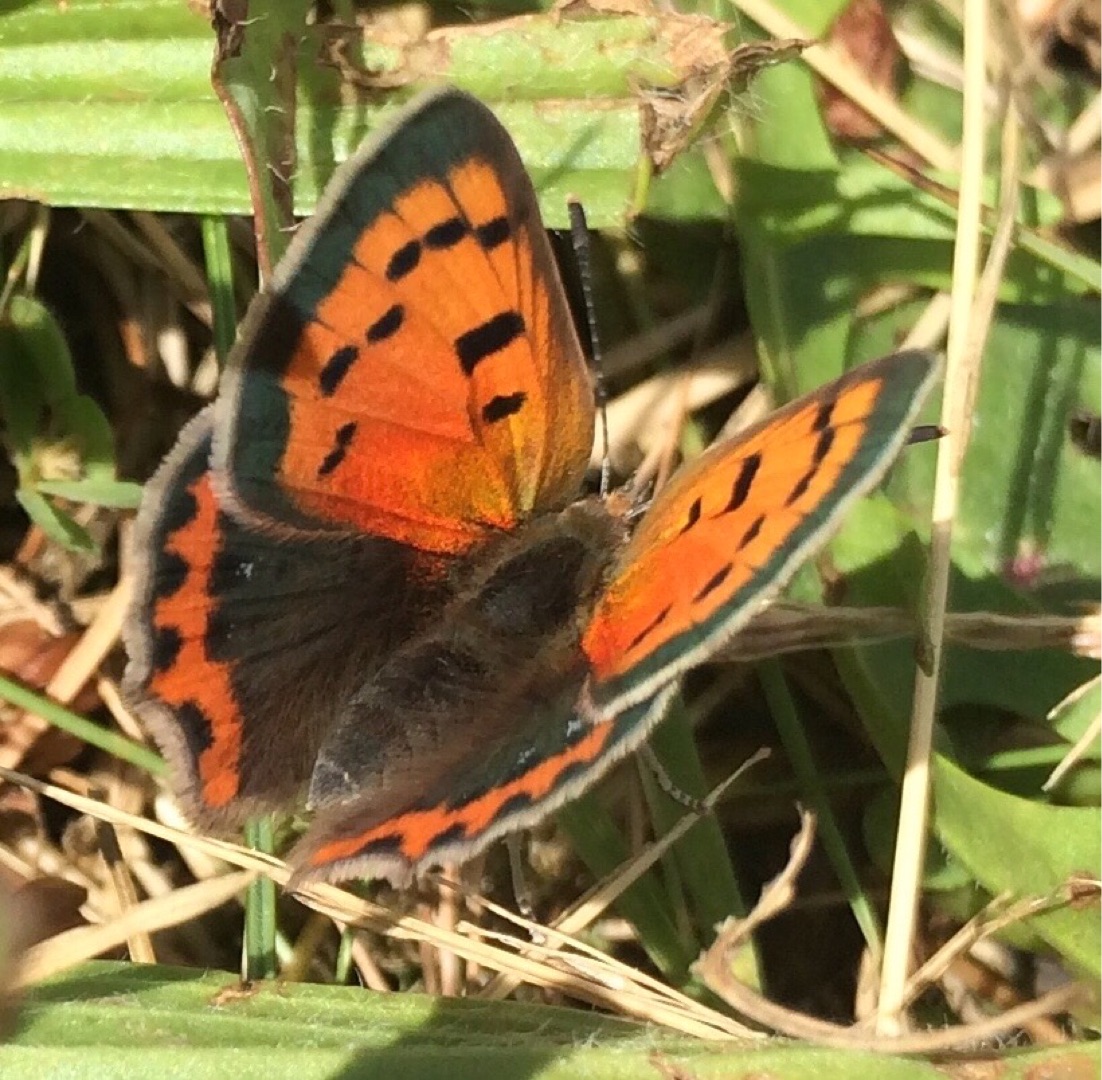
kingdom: Animalia
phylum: Arthropoda
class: Insecta
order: Lepidoptera
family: Lycaenidae
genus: Lycaena
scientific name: Lycaena phlaeas
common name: Lille ildfugl
